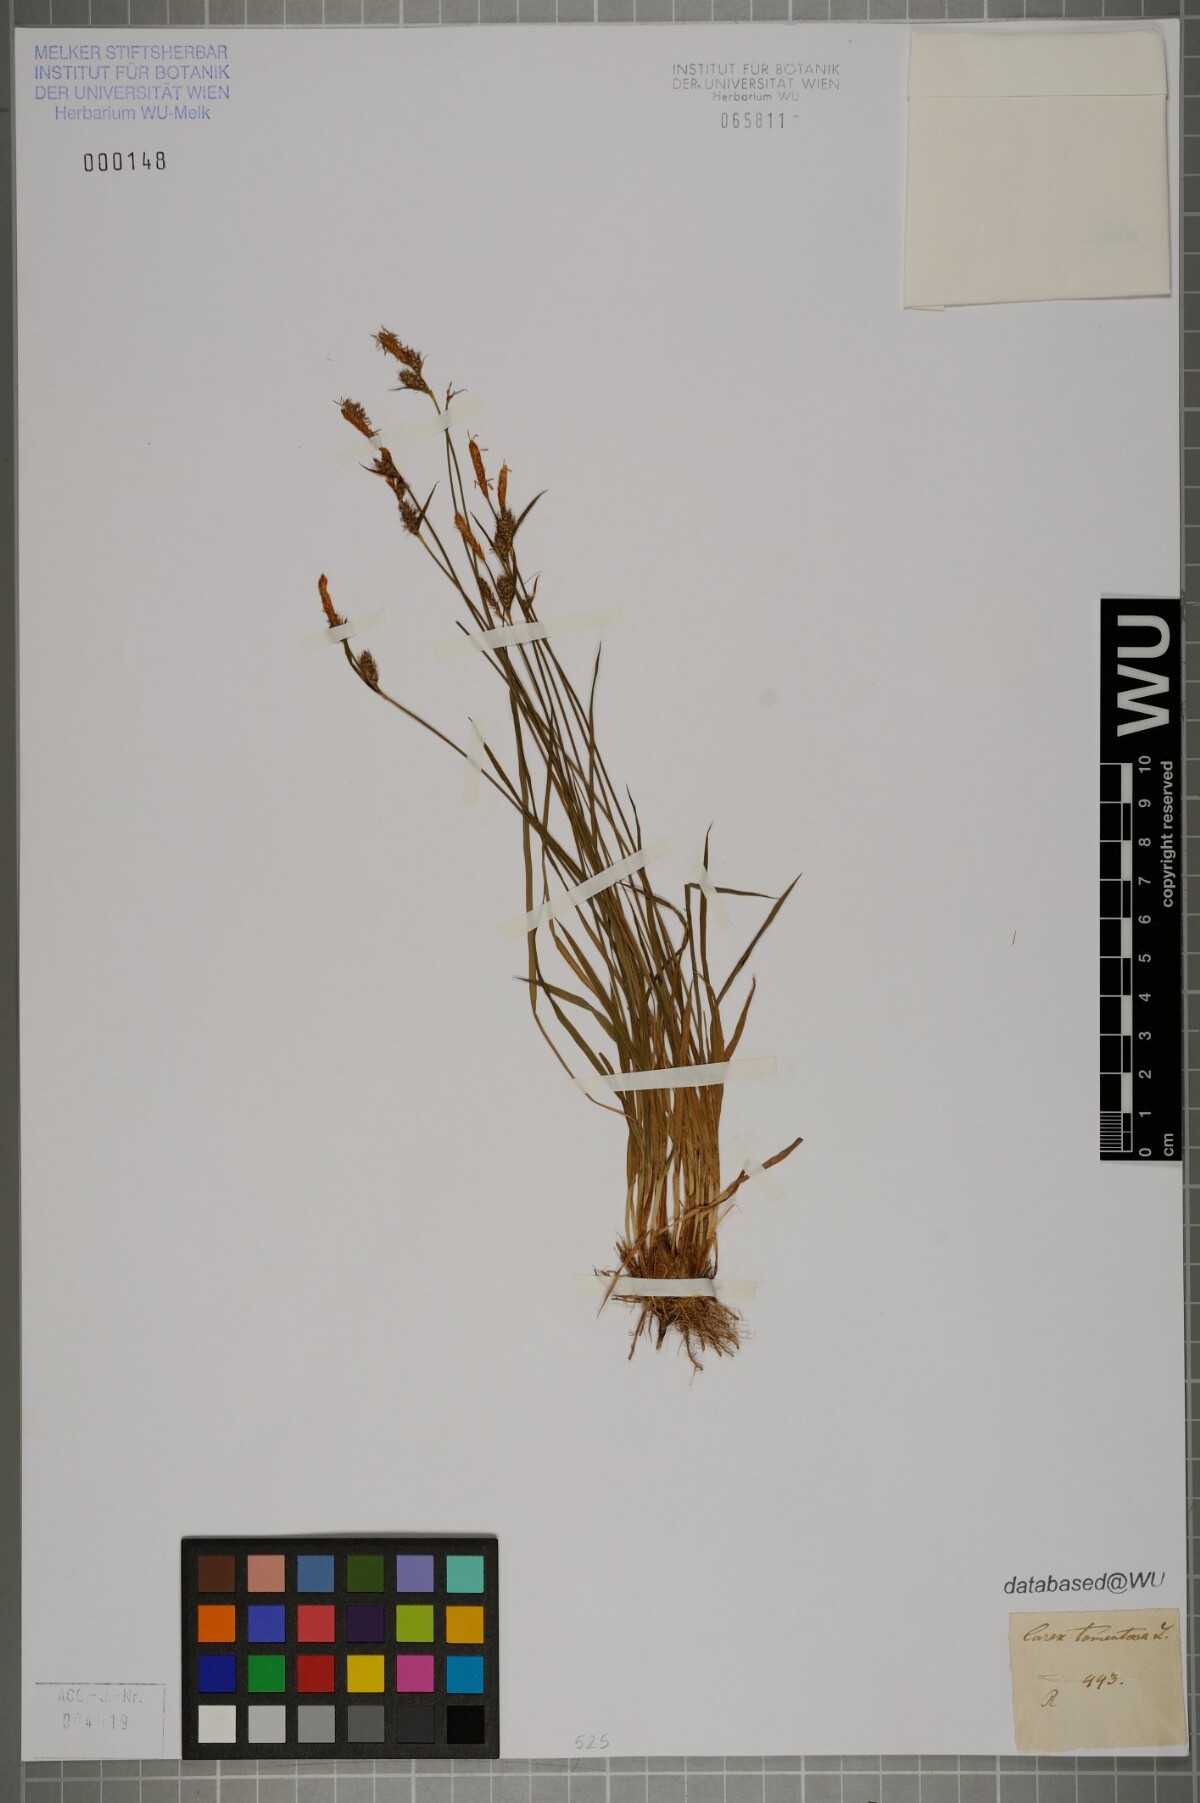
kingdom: Plantae
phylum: Tracheophyta
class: Liliopsida
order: Poales
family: Cyperaceae
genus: Carex
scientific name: Carex tomentosa
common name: Downy-fruited sedge
